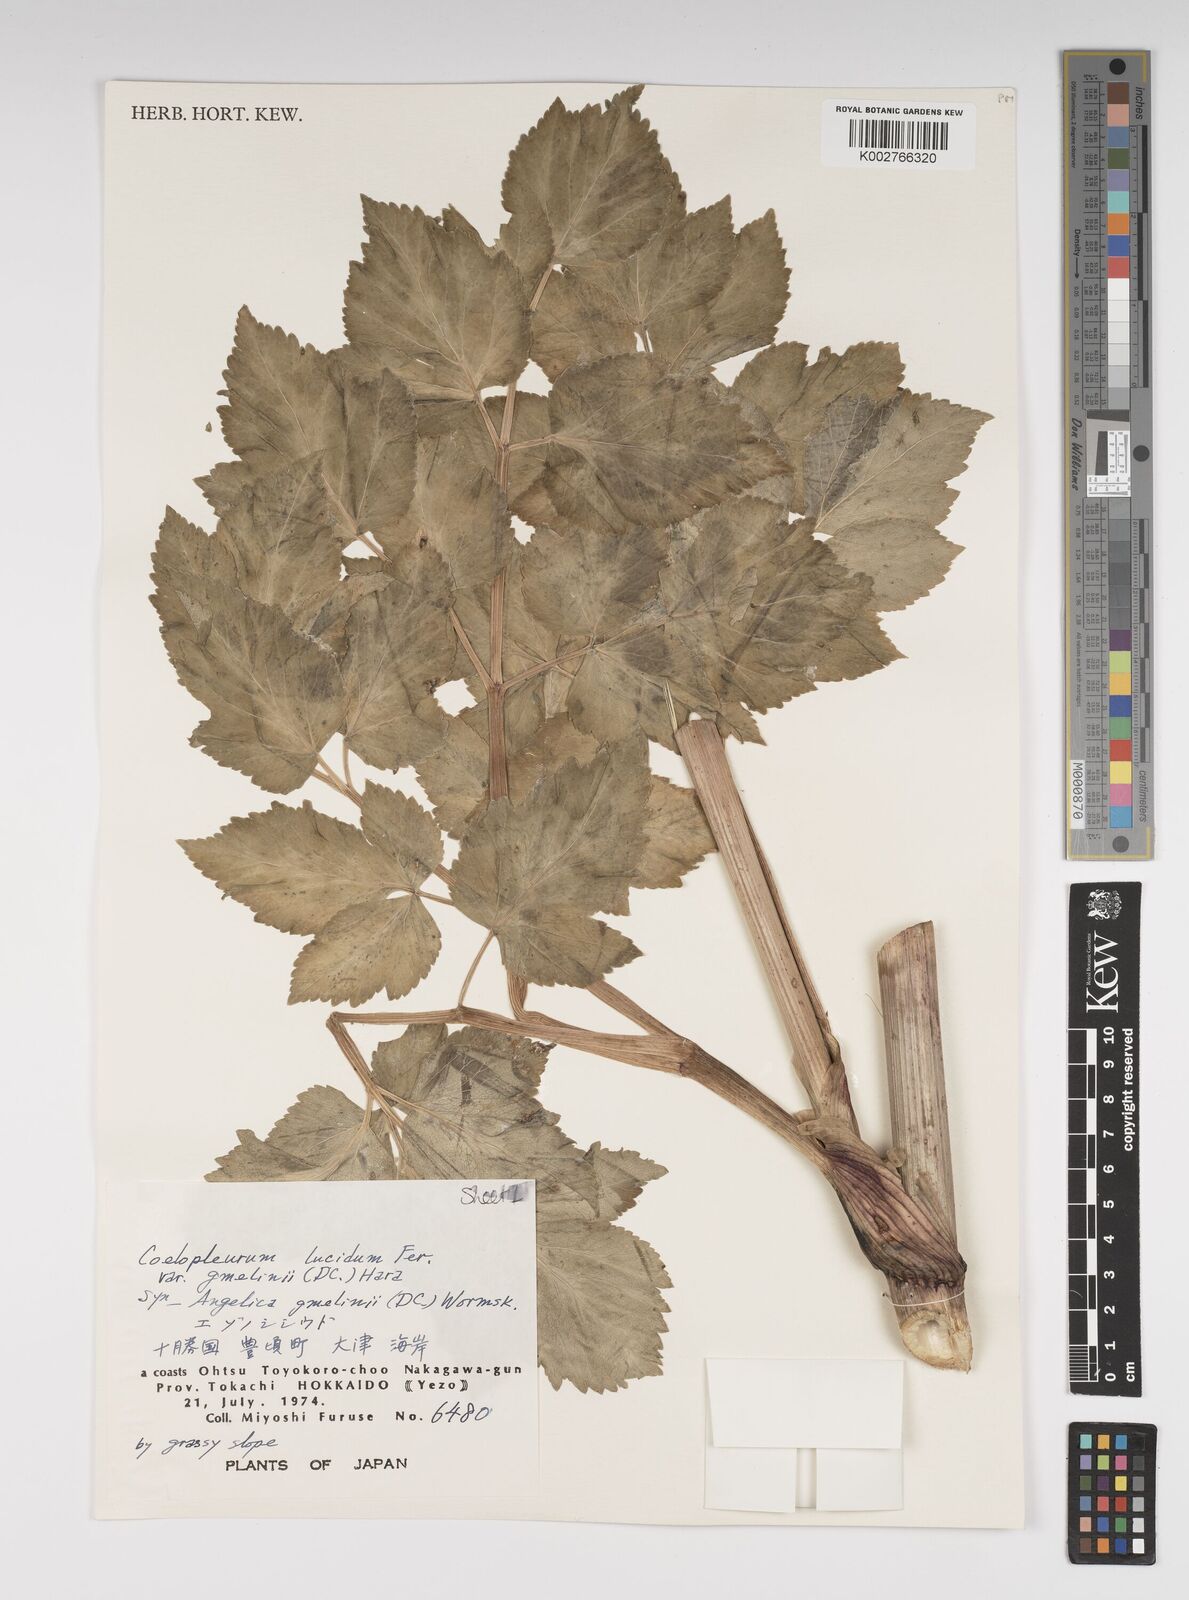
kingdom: Plantae
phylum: Tracheophyta
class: Magnoliopsida
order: Apiales
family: Apiaceae
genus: Angelica
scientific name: Angelica gmelinii
